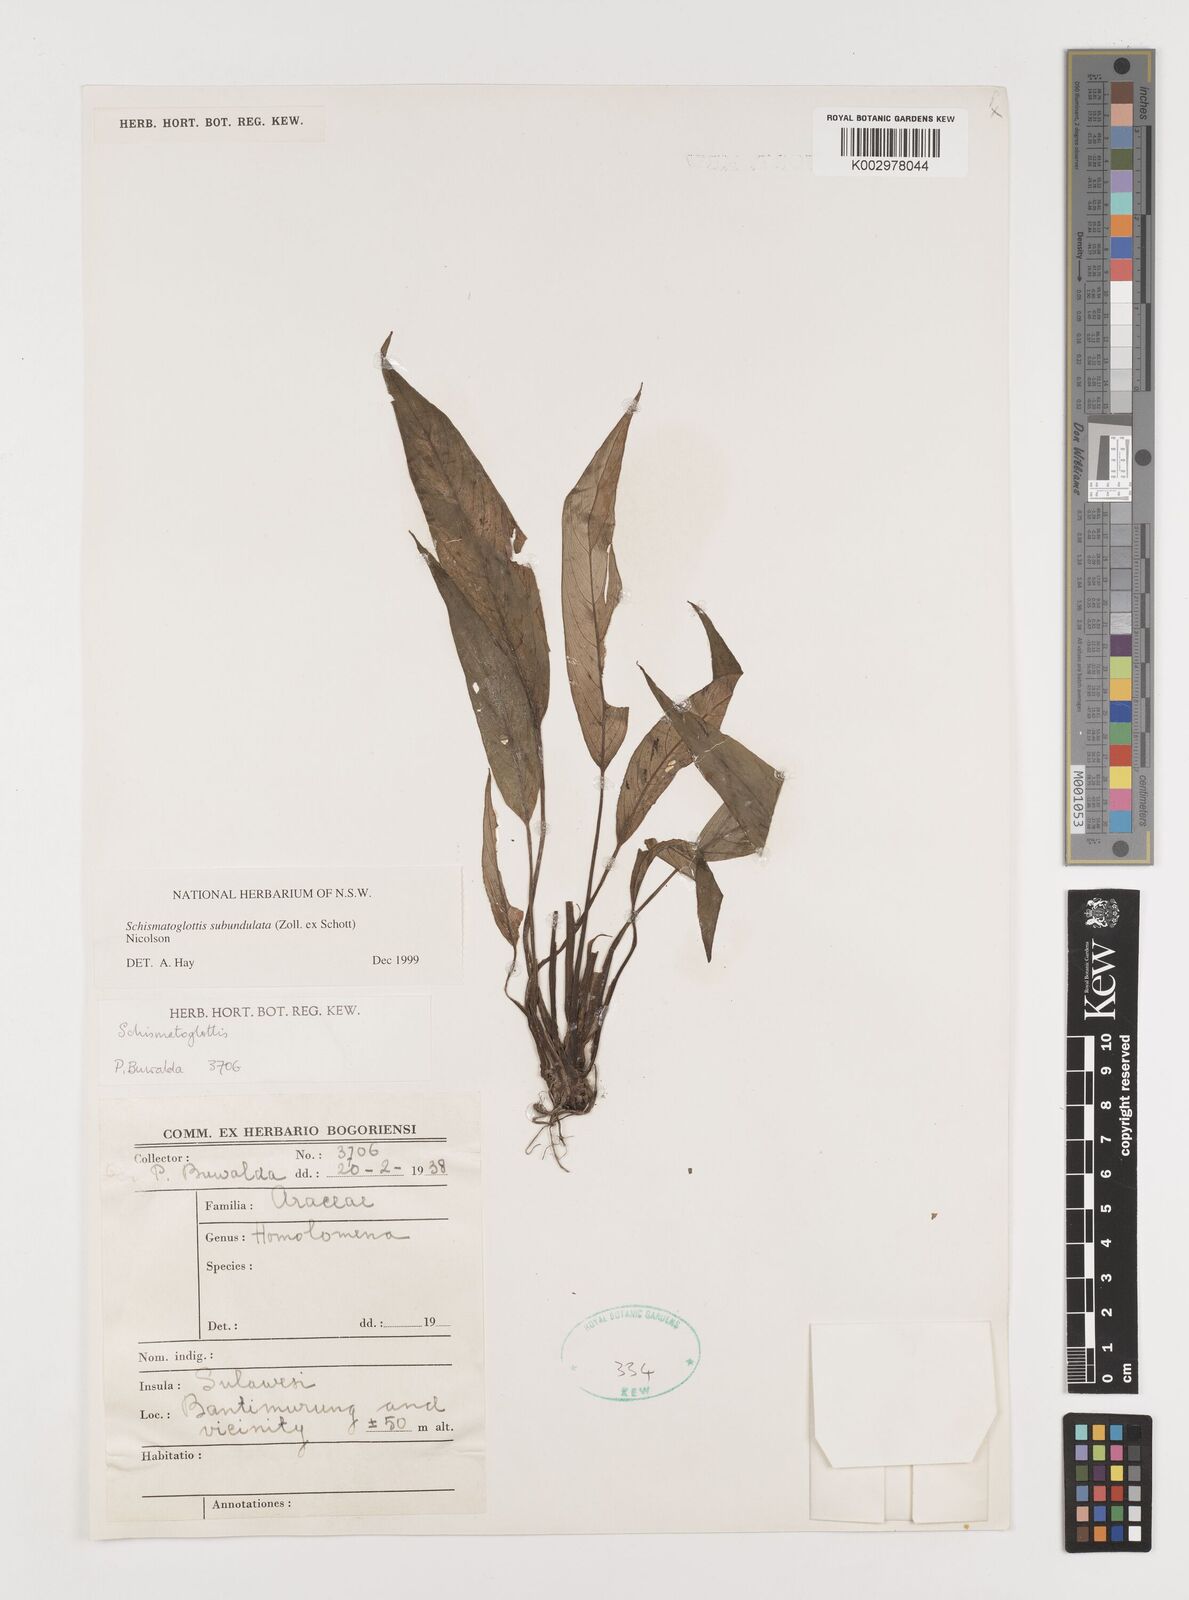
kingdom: Plantae
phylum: Tracheophyta
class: Liliopsida
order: Alismatales
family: Araceae
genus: Schismatoglottis
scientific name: Schismatoglottis subundulata
